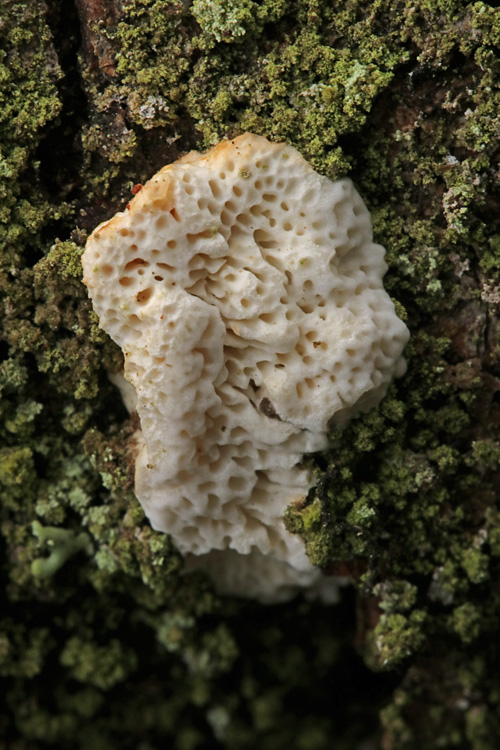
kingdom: Fungi
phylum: Basidiomycota
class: Agaricomycetes
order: Polyporales
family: Fomitopsidaceae
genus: Fomitopsis
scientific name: Fomitopsis
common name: fyrre-skiveporesvamp
